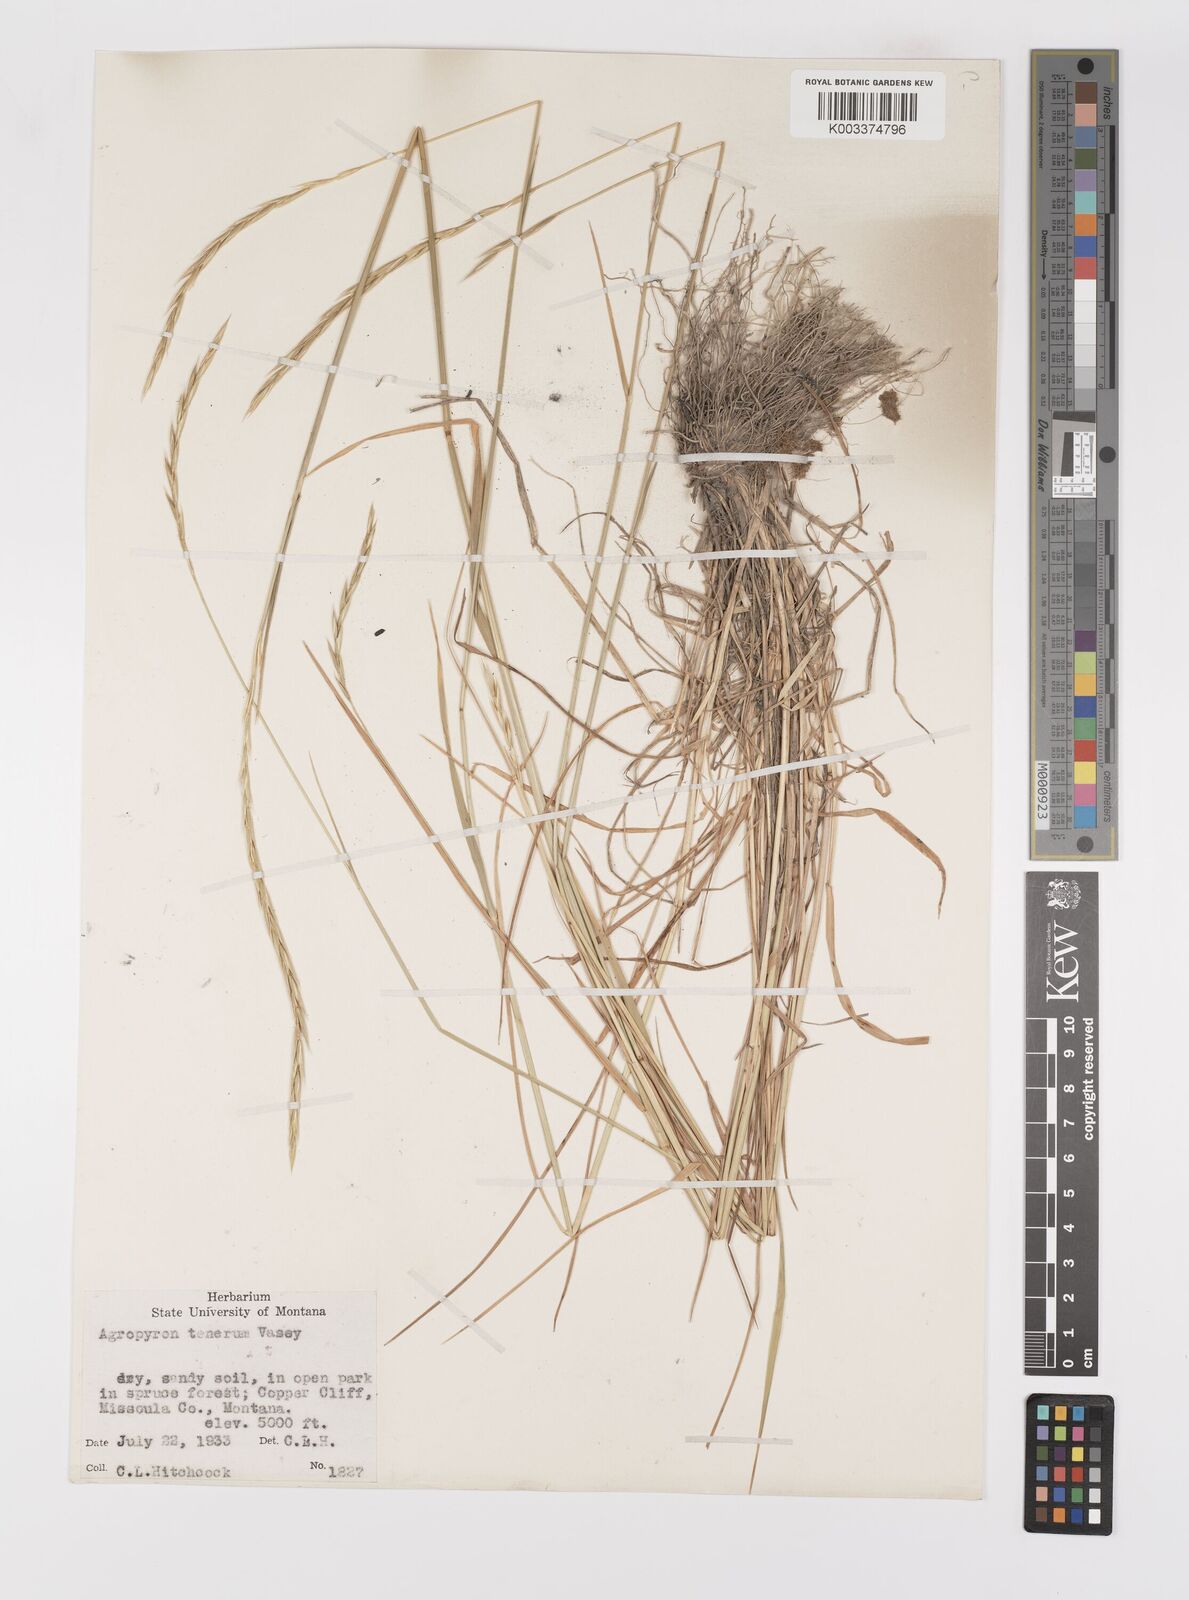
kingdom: Plantae
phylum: Tracheophyta
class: Liliopsida
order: Poales
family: Poaceae
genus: Elymus
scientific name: Elymus violaceus
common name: Arctic wheatgrass
